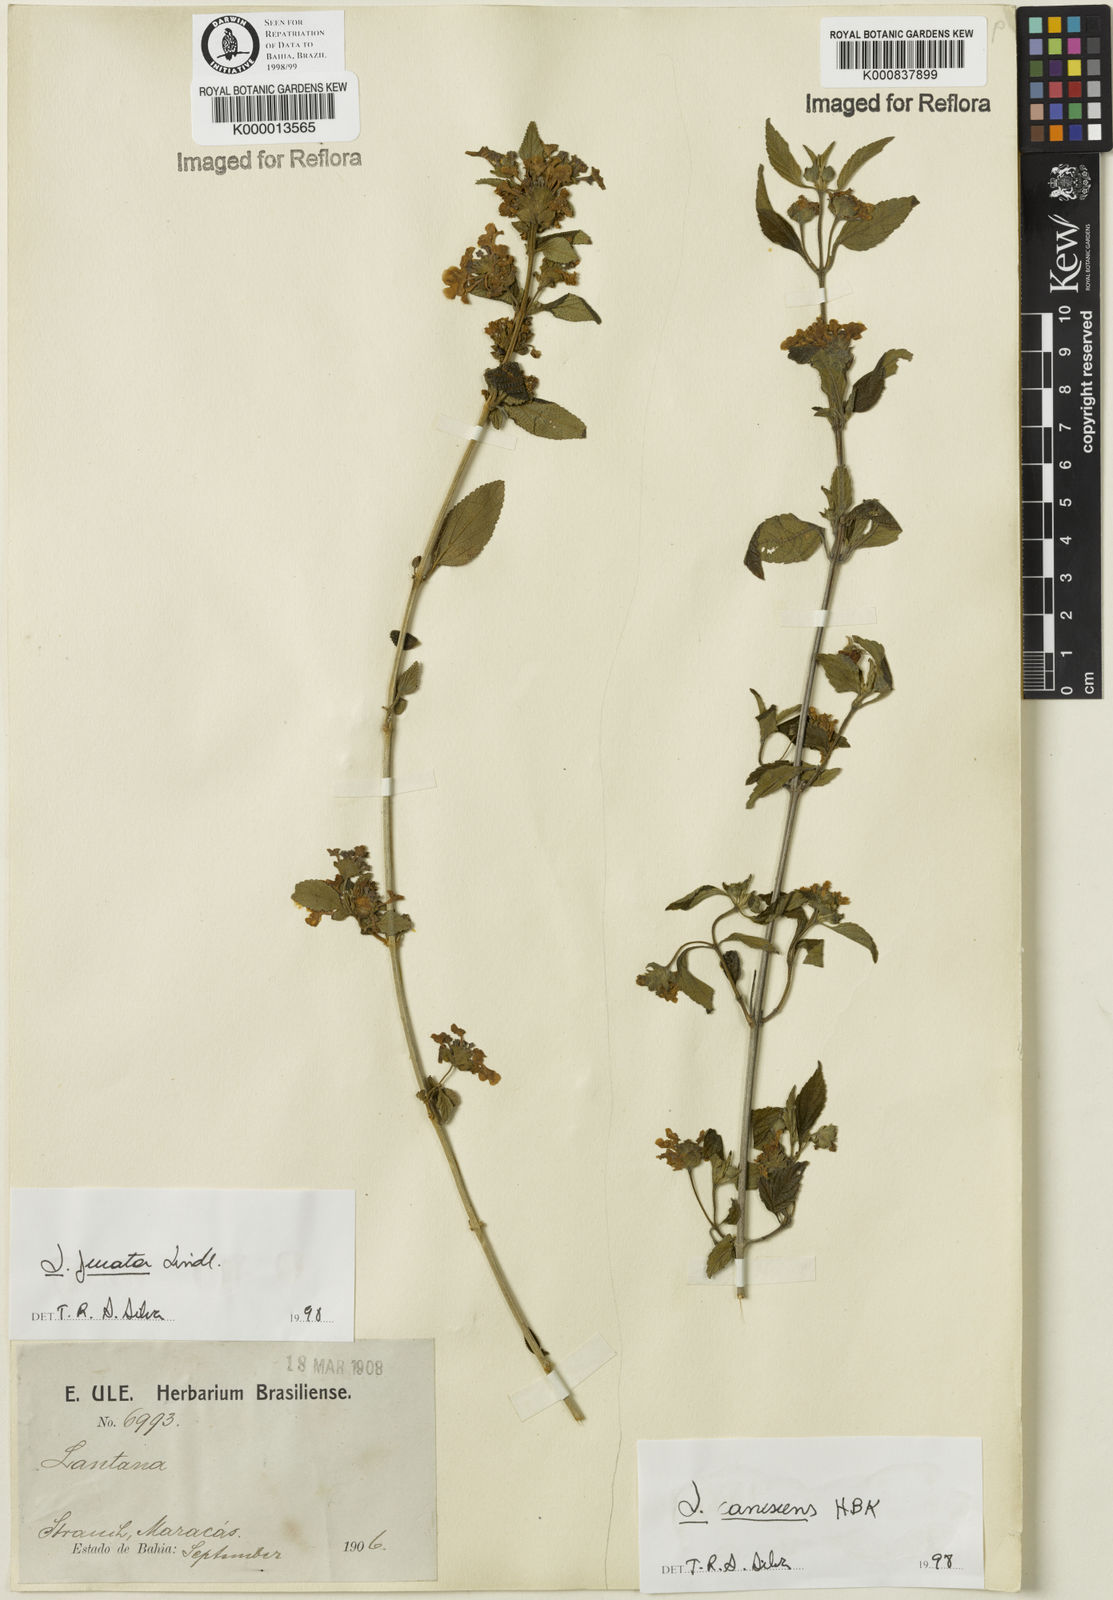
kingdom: Plantae
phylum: Tracheophyta
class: Magnoliopsida
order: Lamiales
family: Verbenaceae
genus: Lantana
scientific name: Lantana canescens
